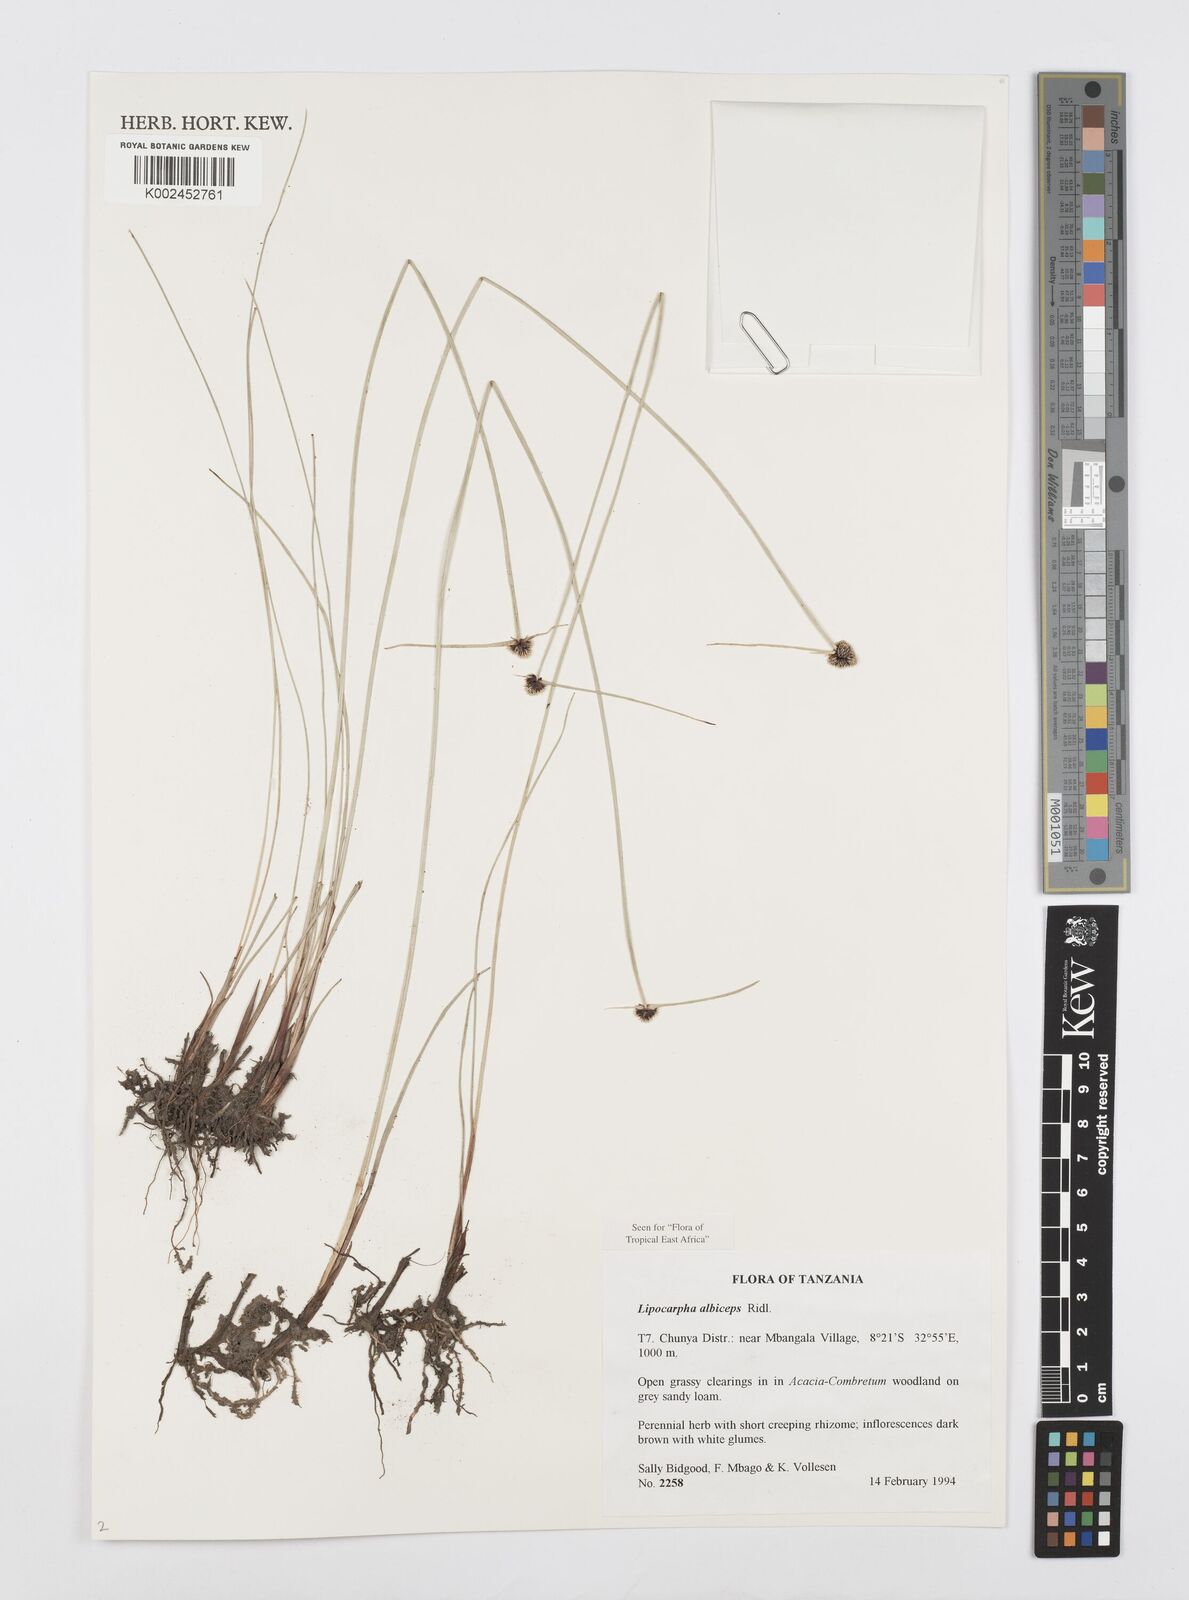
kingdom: Plantae
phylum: Tracheophyta
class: Liliopsida
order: Poales
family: Cyperaceae
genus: Cyperus
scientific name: Cyperus albiceps
